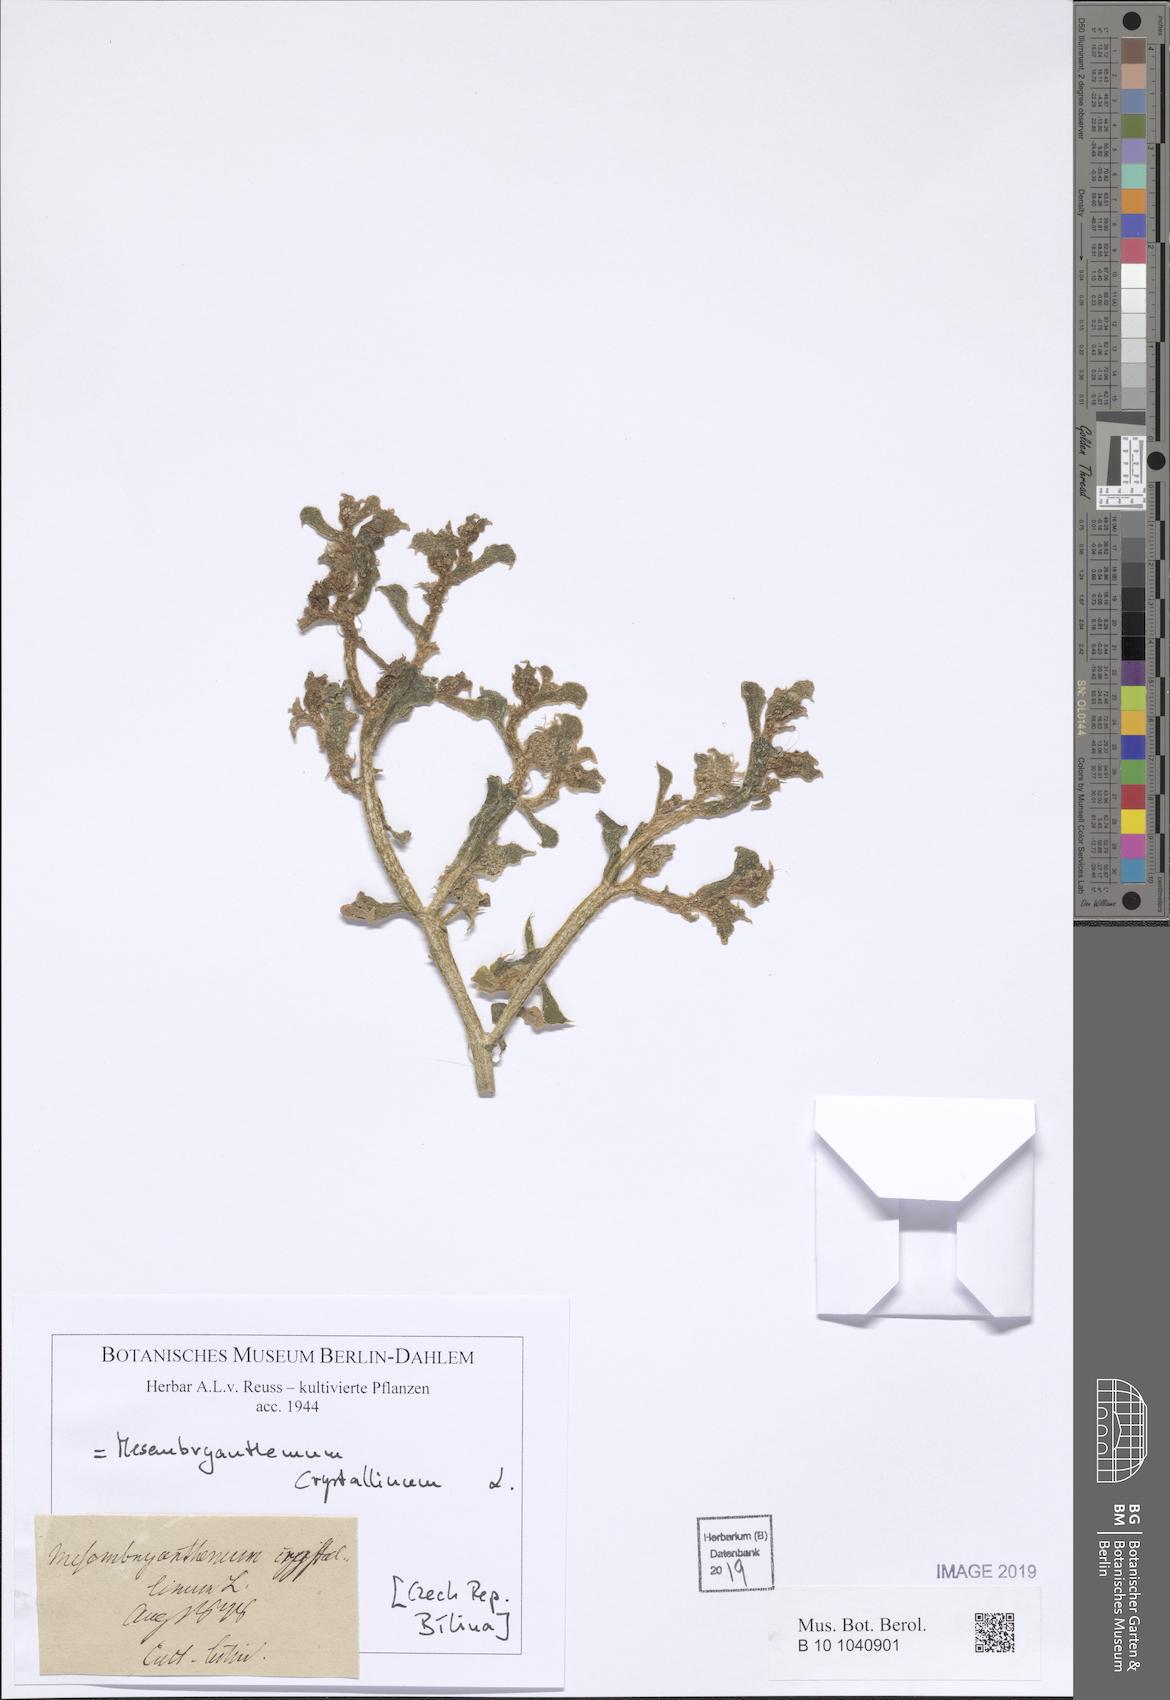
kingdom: Plantae
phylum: Tracheophyta
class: Magnoliopsida
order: Caryophyllales
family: Aizoaceae
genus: Mesembryanthemum
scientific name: Mesembryanthemum crystallinum
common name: Common iceplant
